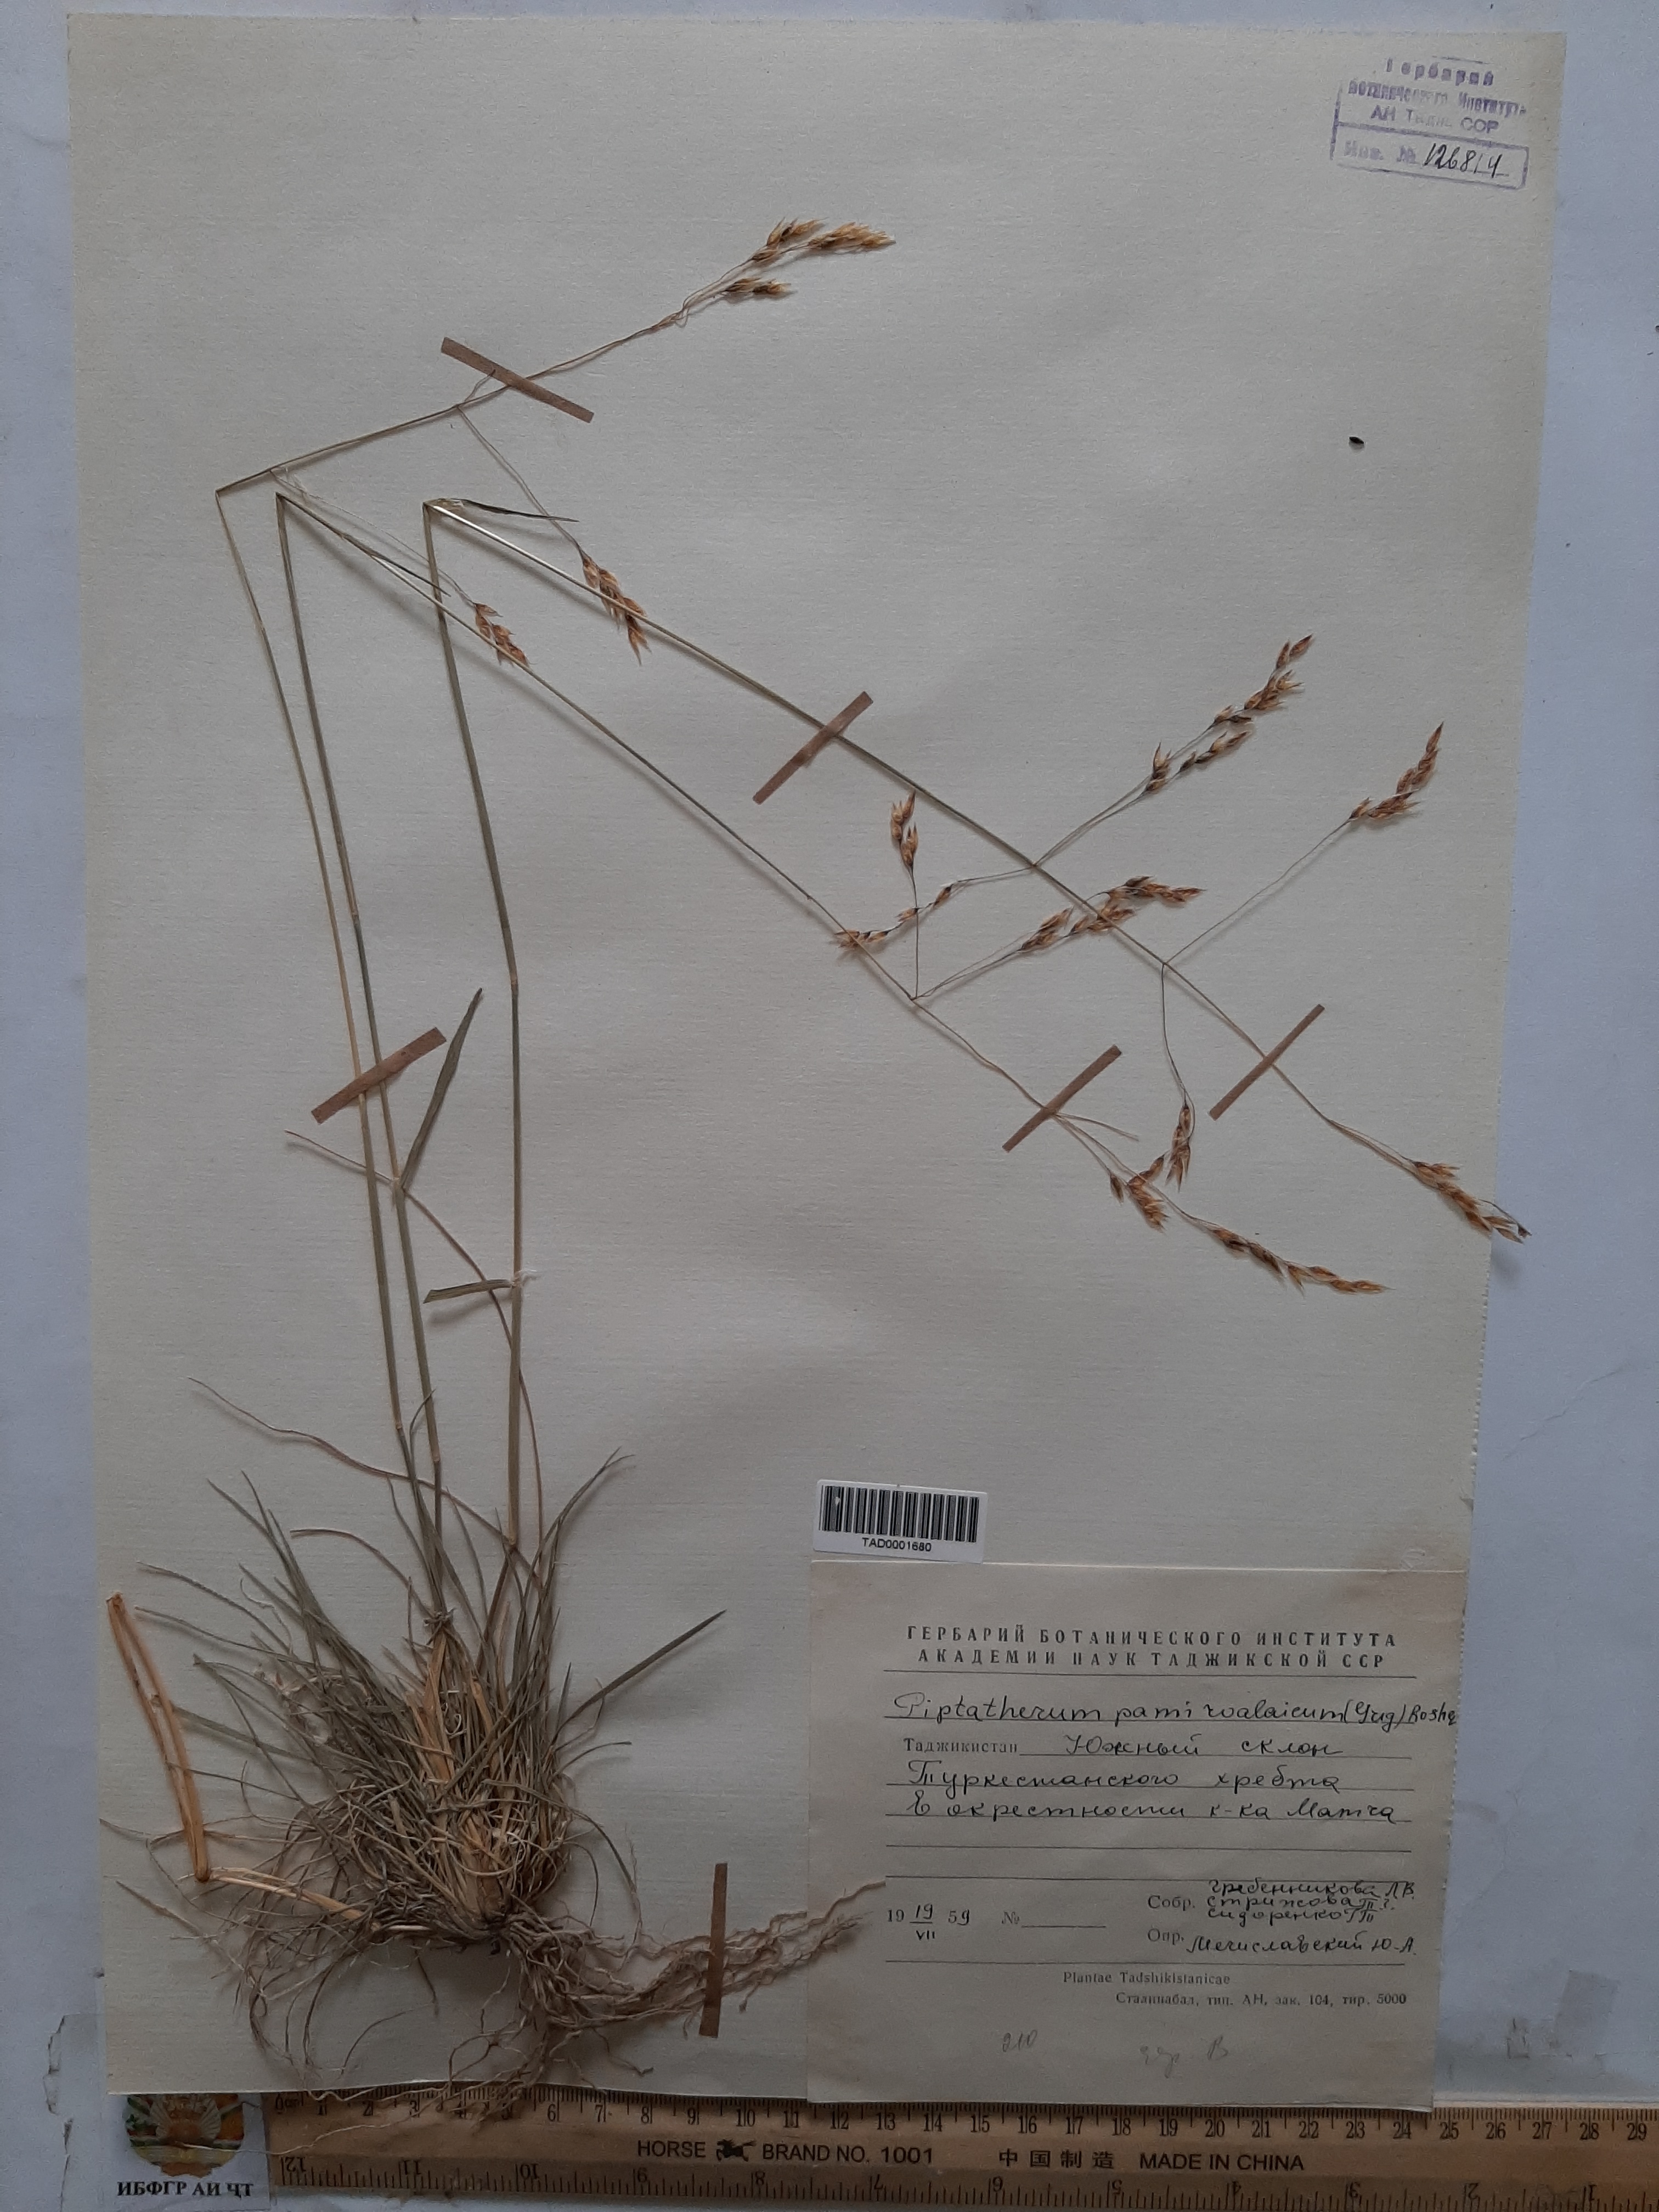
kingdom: Plantae
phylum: Tracheophyta
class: Liliopsida
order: Poales
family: Poaceae
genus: Piptatherum
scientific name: Piptatherum pamiralaicum
